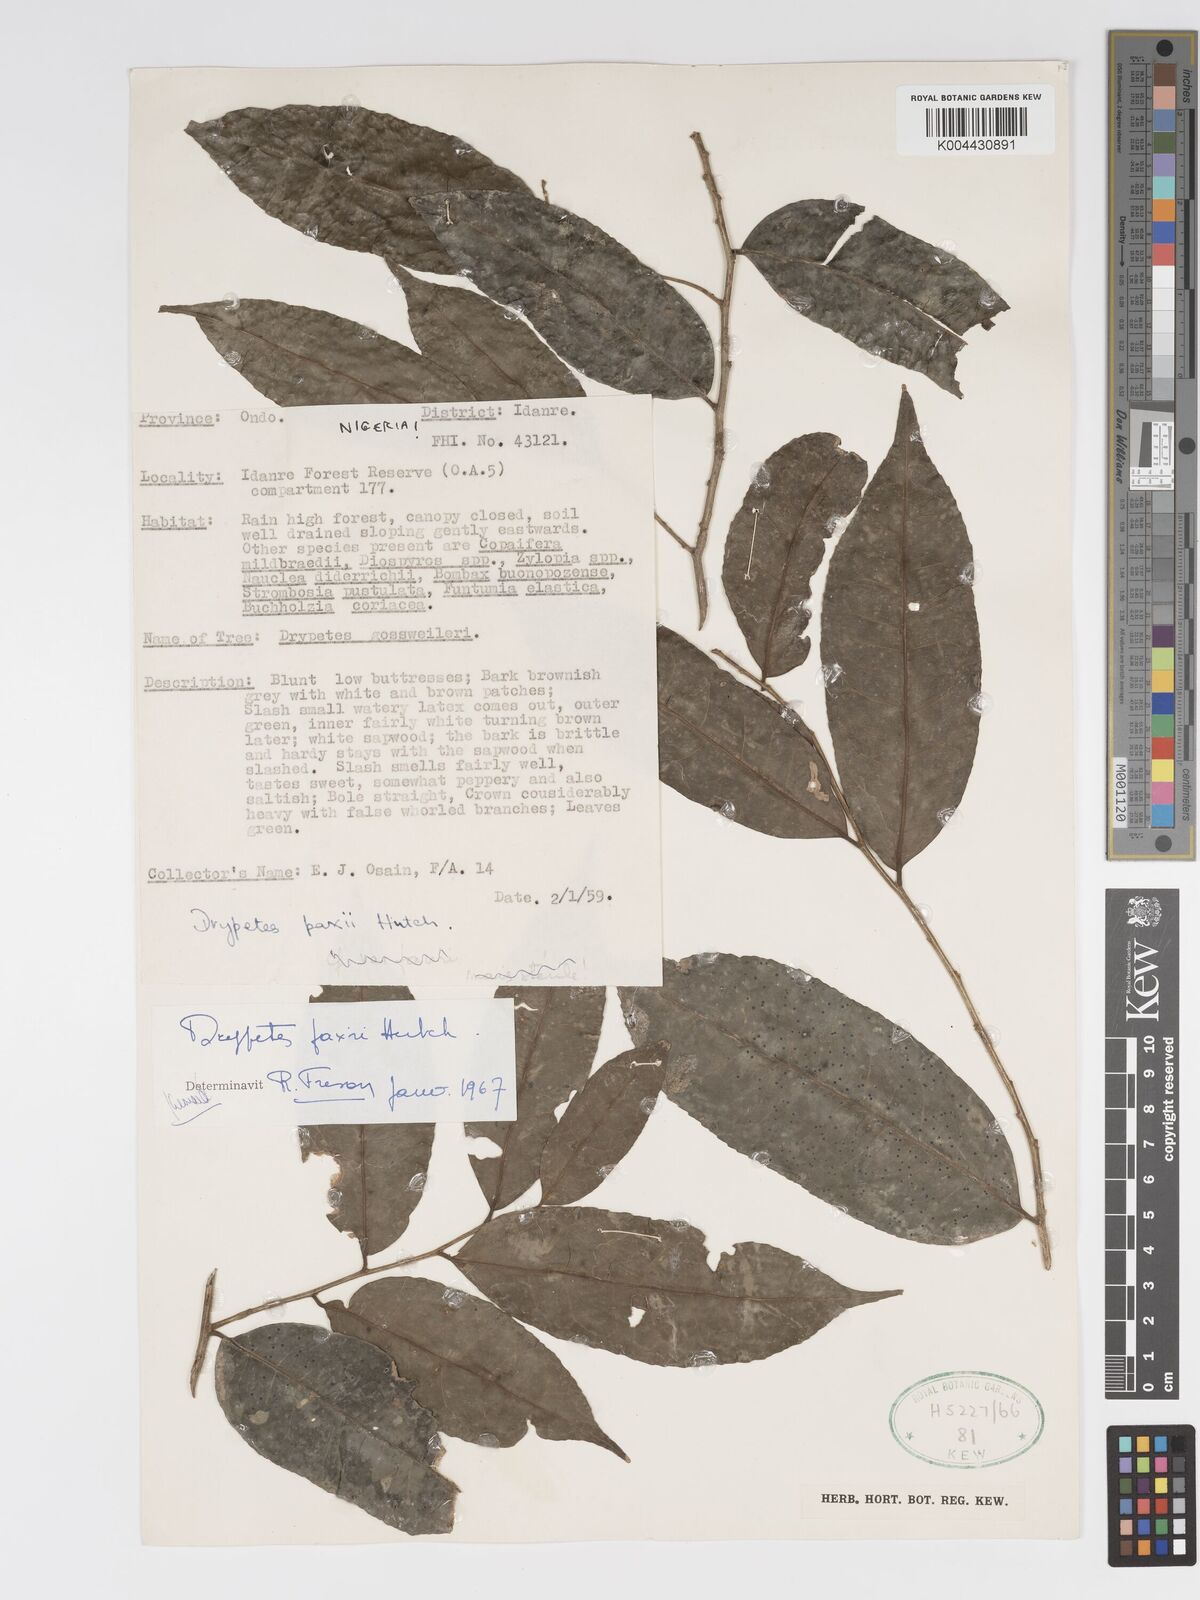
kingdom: Plantae
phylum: Tracheophyta
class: Magnoliopsida
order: Malpighiales
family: Putranjivaceae
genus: Drypetes
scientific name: Drypetes paxii
